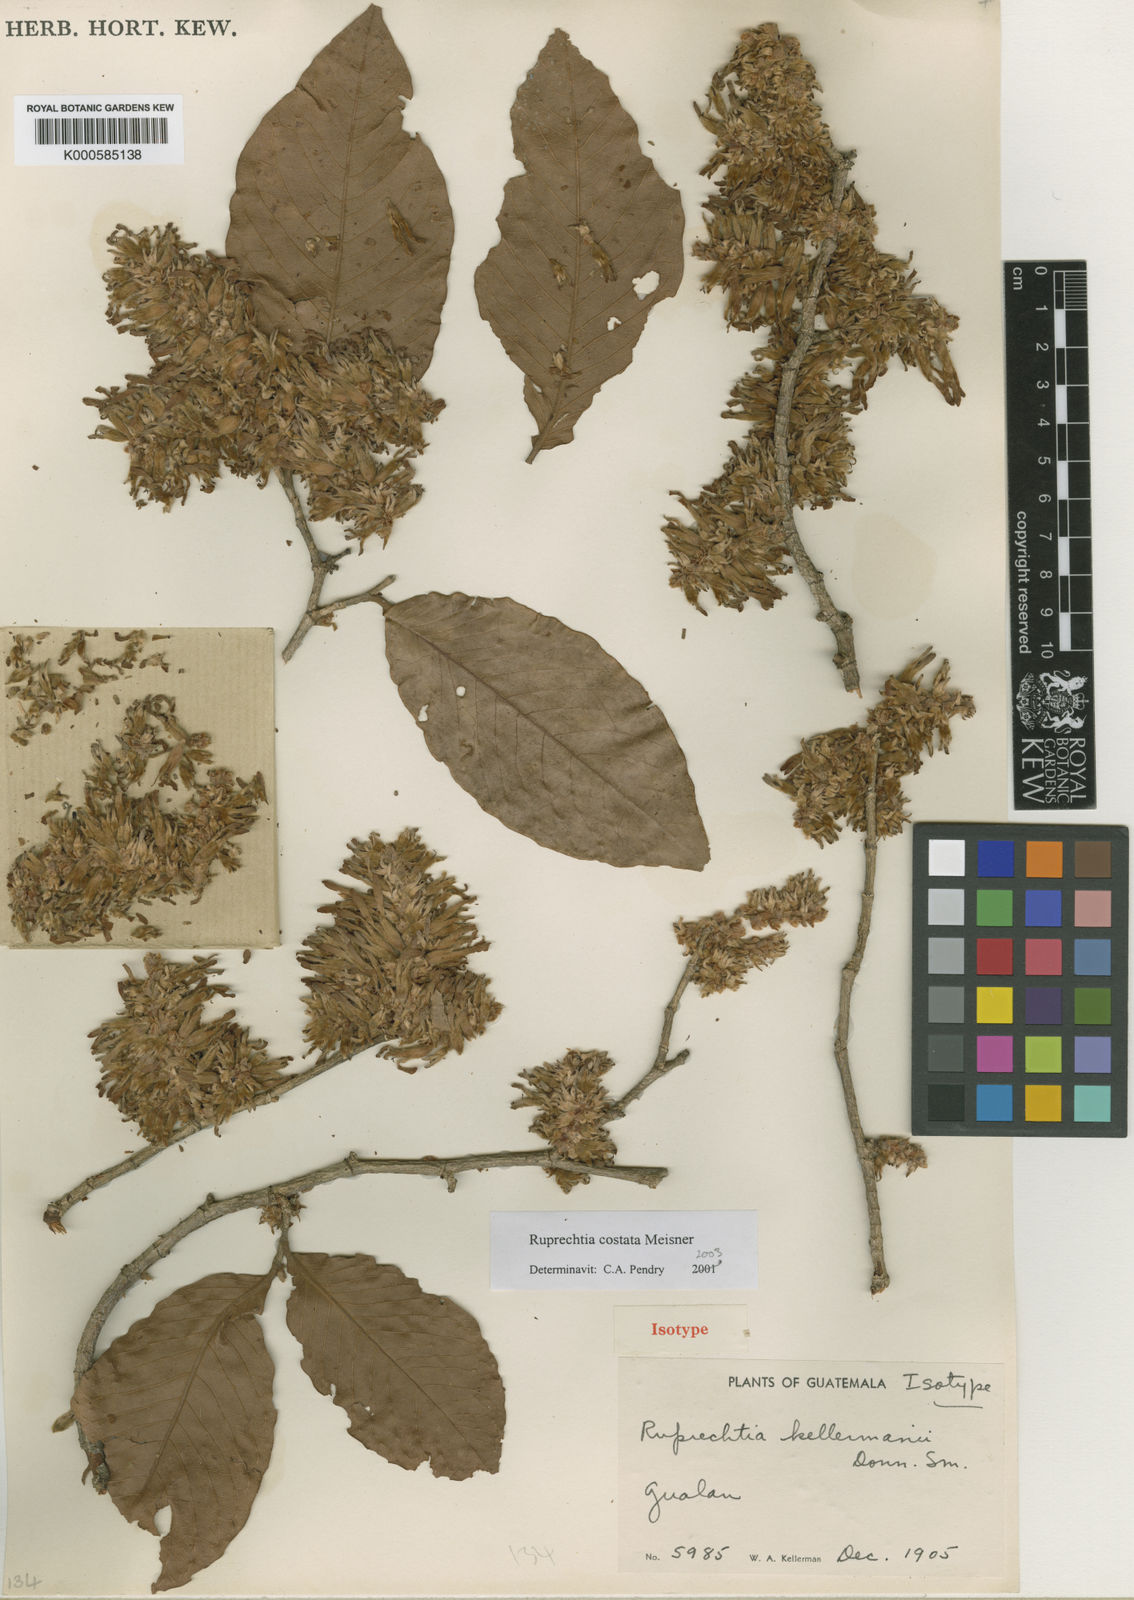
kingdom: Plantae
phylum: Tracheophyta
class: Magnoliopsida
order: Caryophyllales
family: Polygonaceae
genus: Ruprechtia
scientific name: Ruprechtia costata
